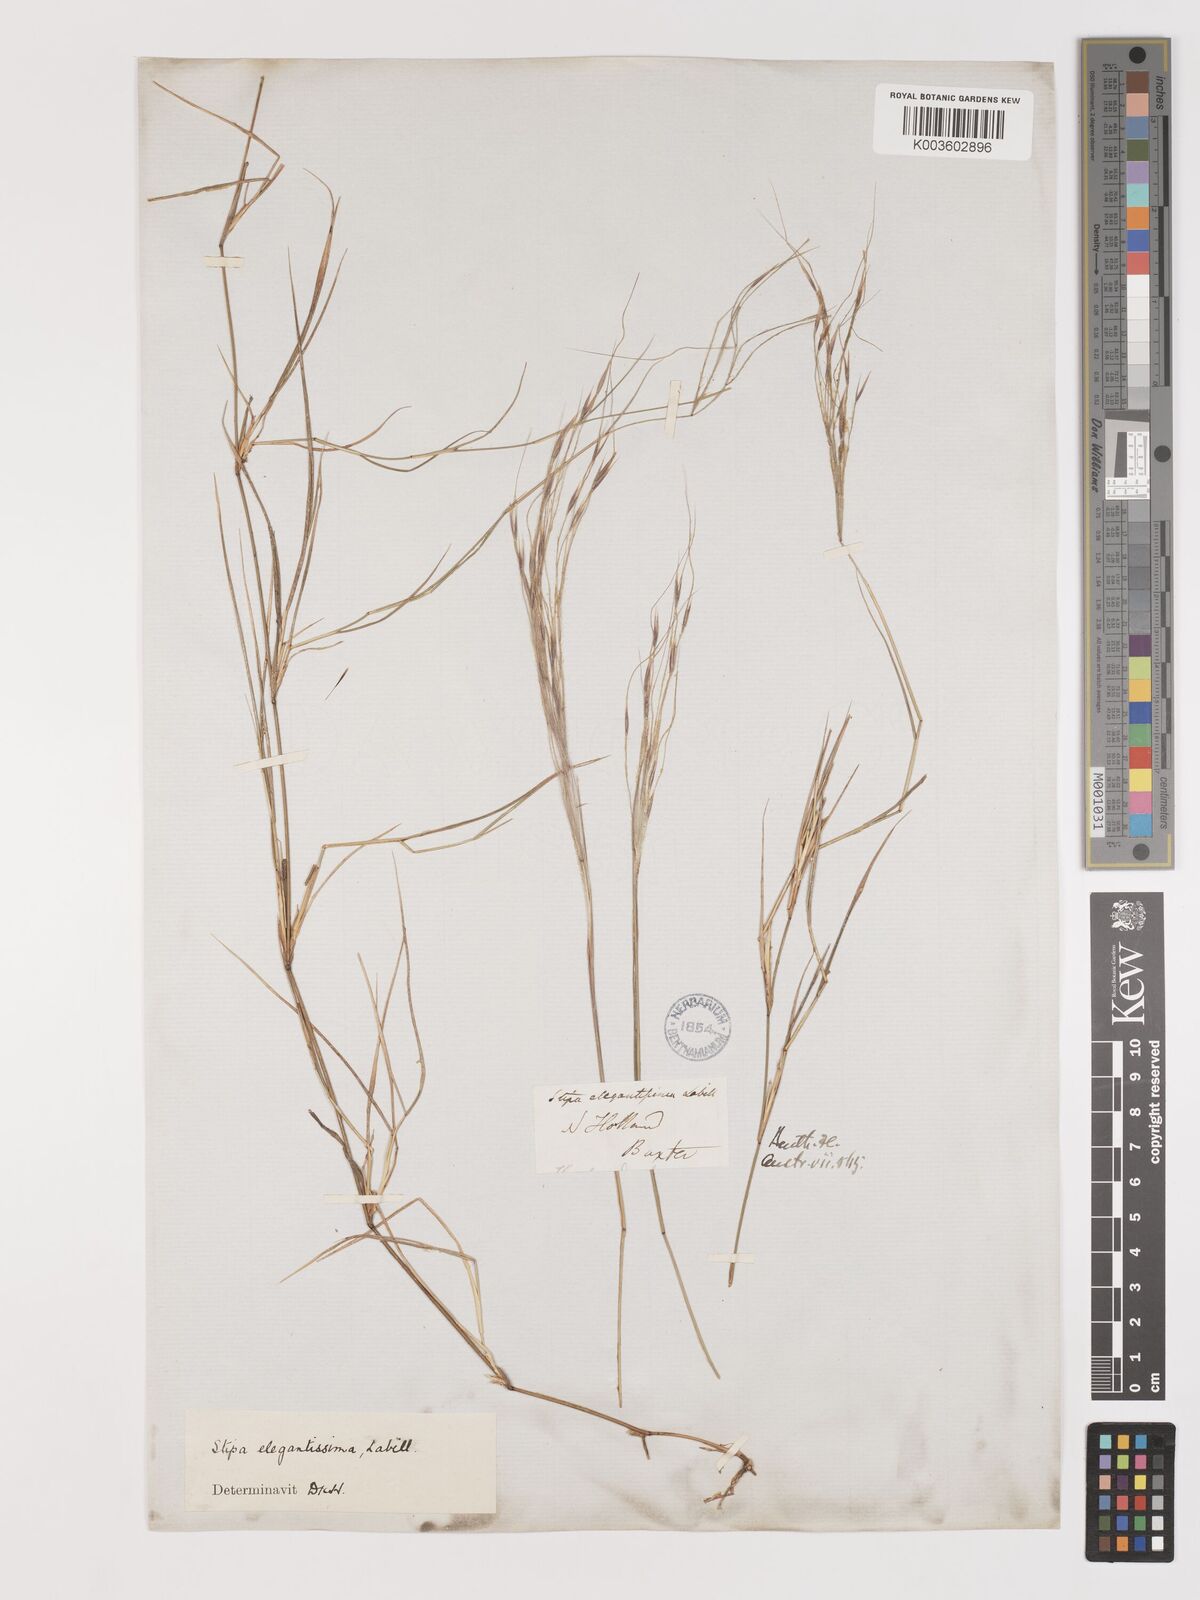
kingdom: Plantae
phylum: Tracheophyta
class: Liliopsida
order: Poales
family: Poaceae
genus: Austrostipa
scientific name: Austrostipa elegantissima
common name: Feather spear grass
